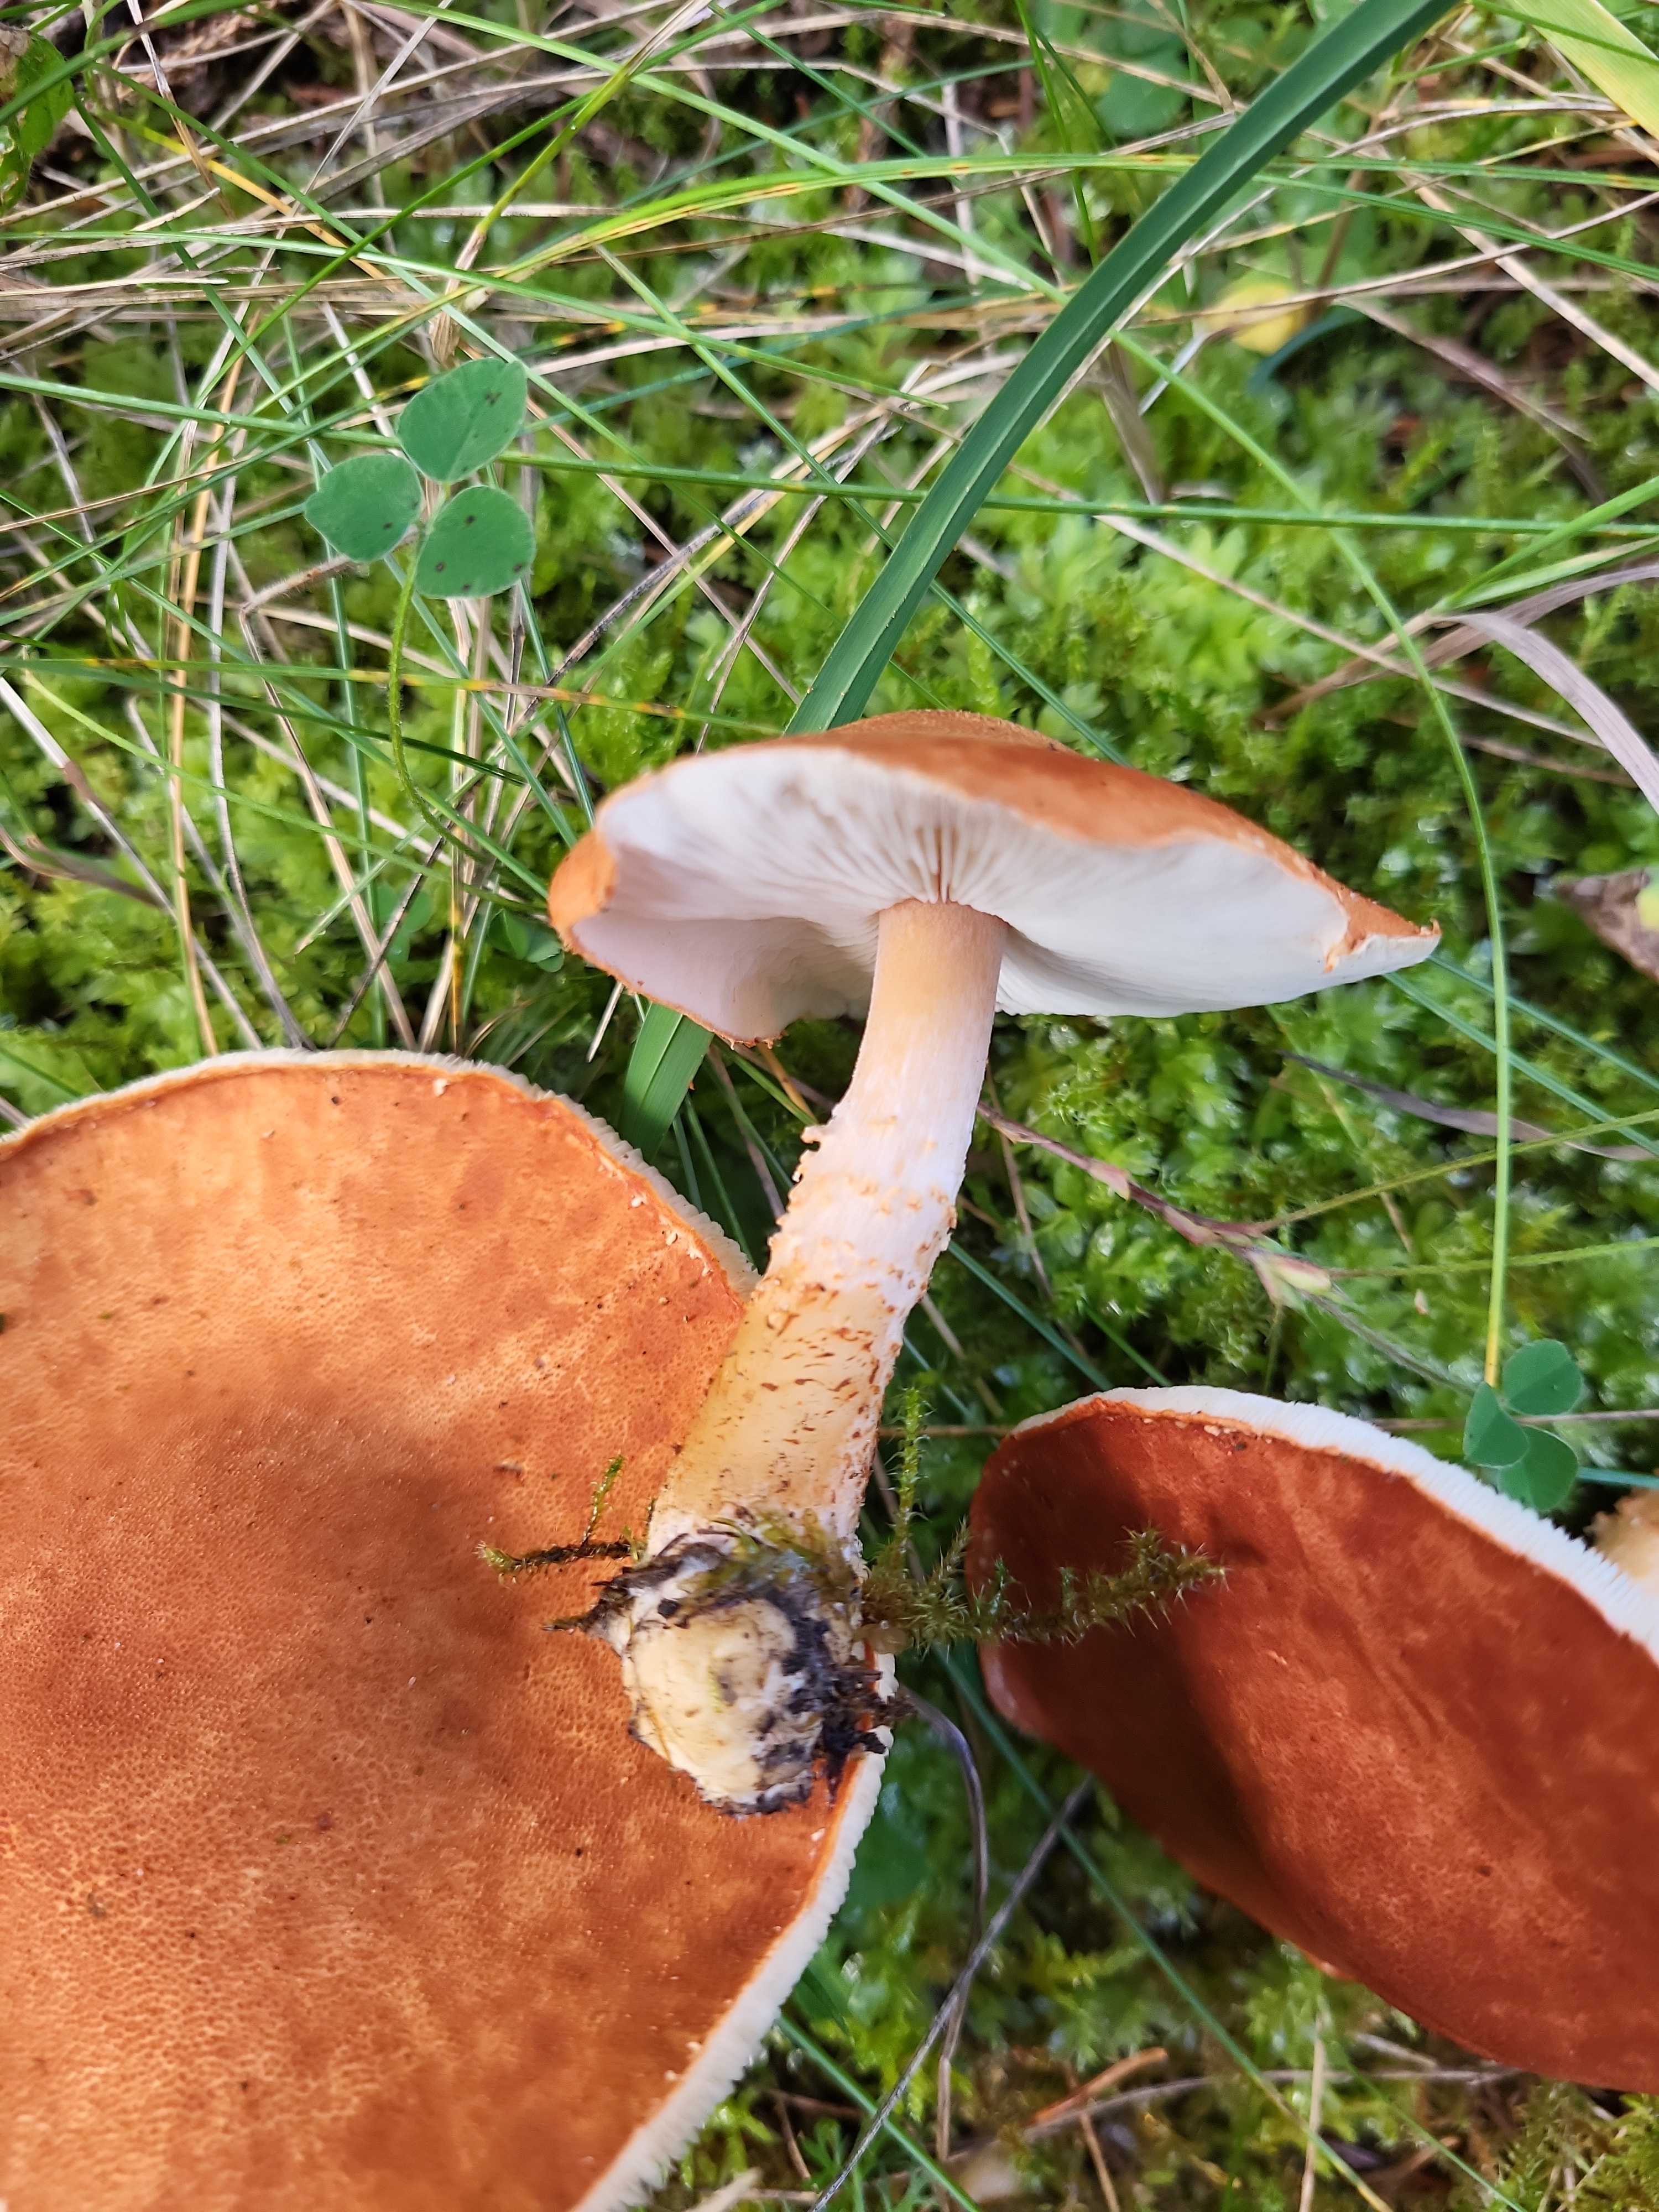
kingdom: Fungi
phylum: Basidiomycota
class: Agaricomycetes
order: Agaricales
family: Agaricaceae
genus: Cystodermella
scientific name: Cystodermella
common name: grynhat
